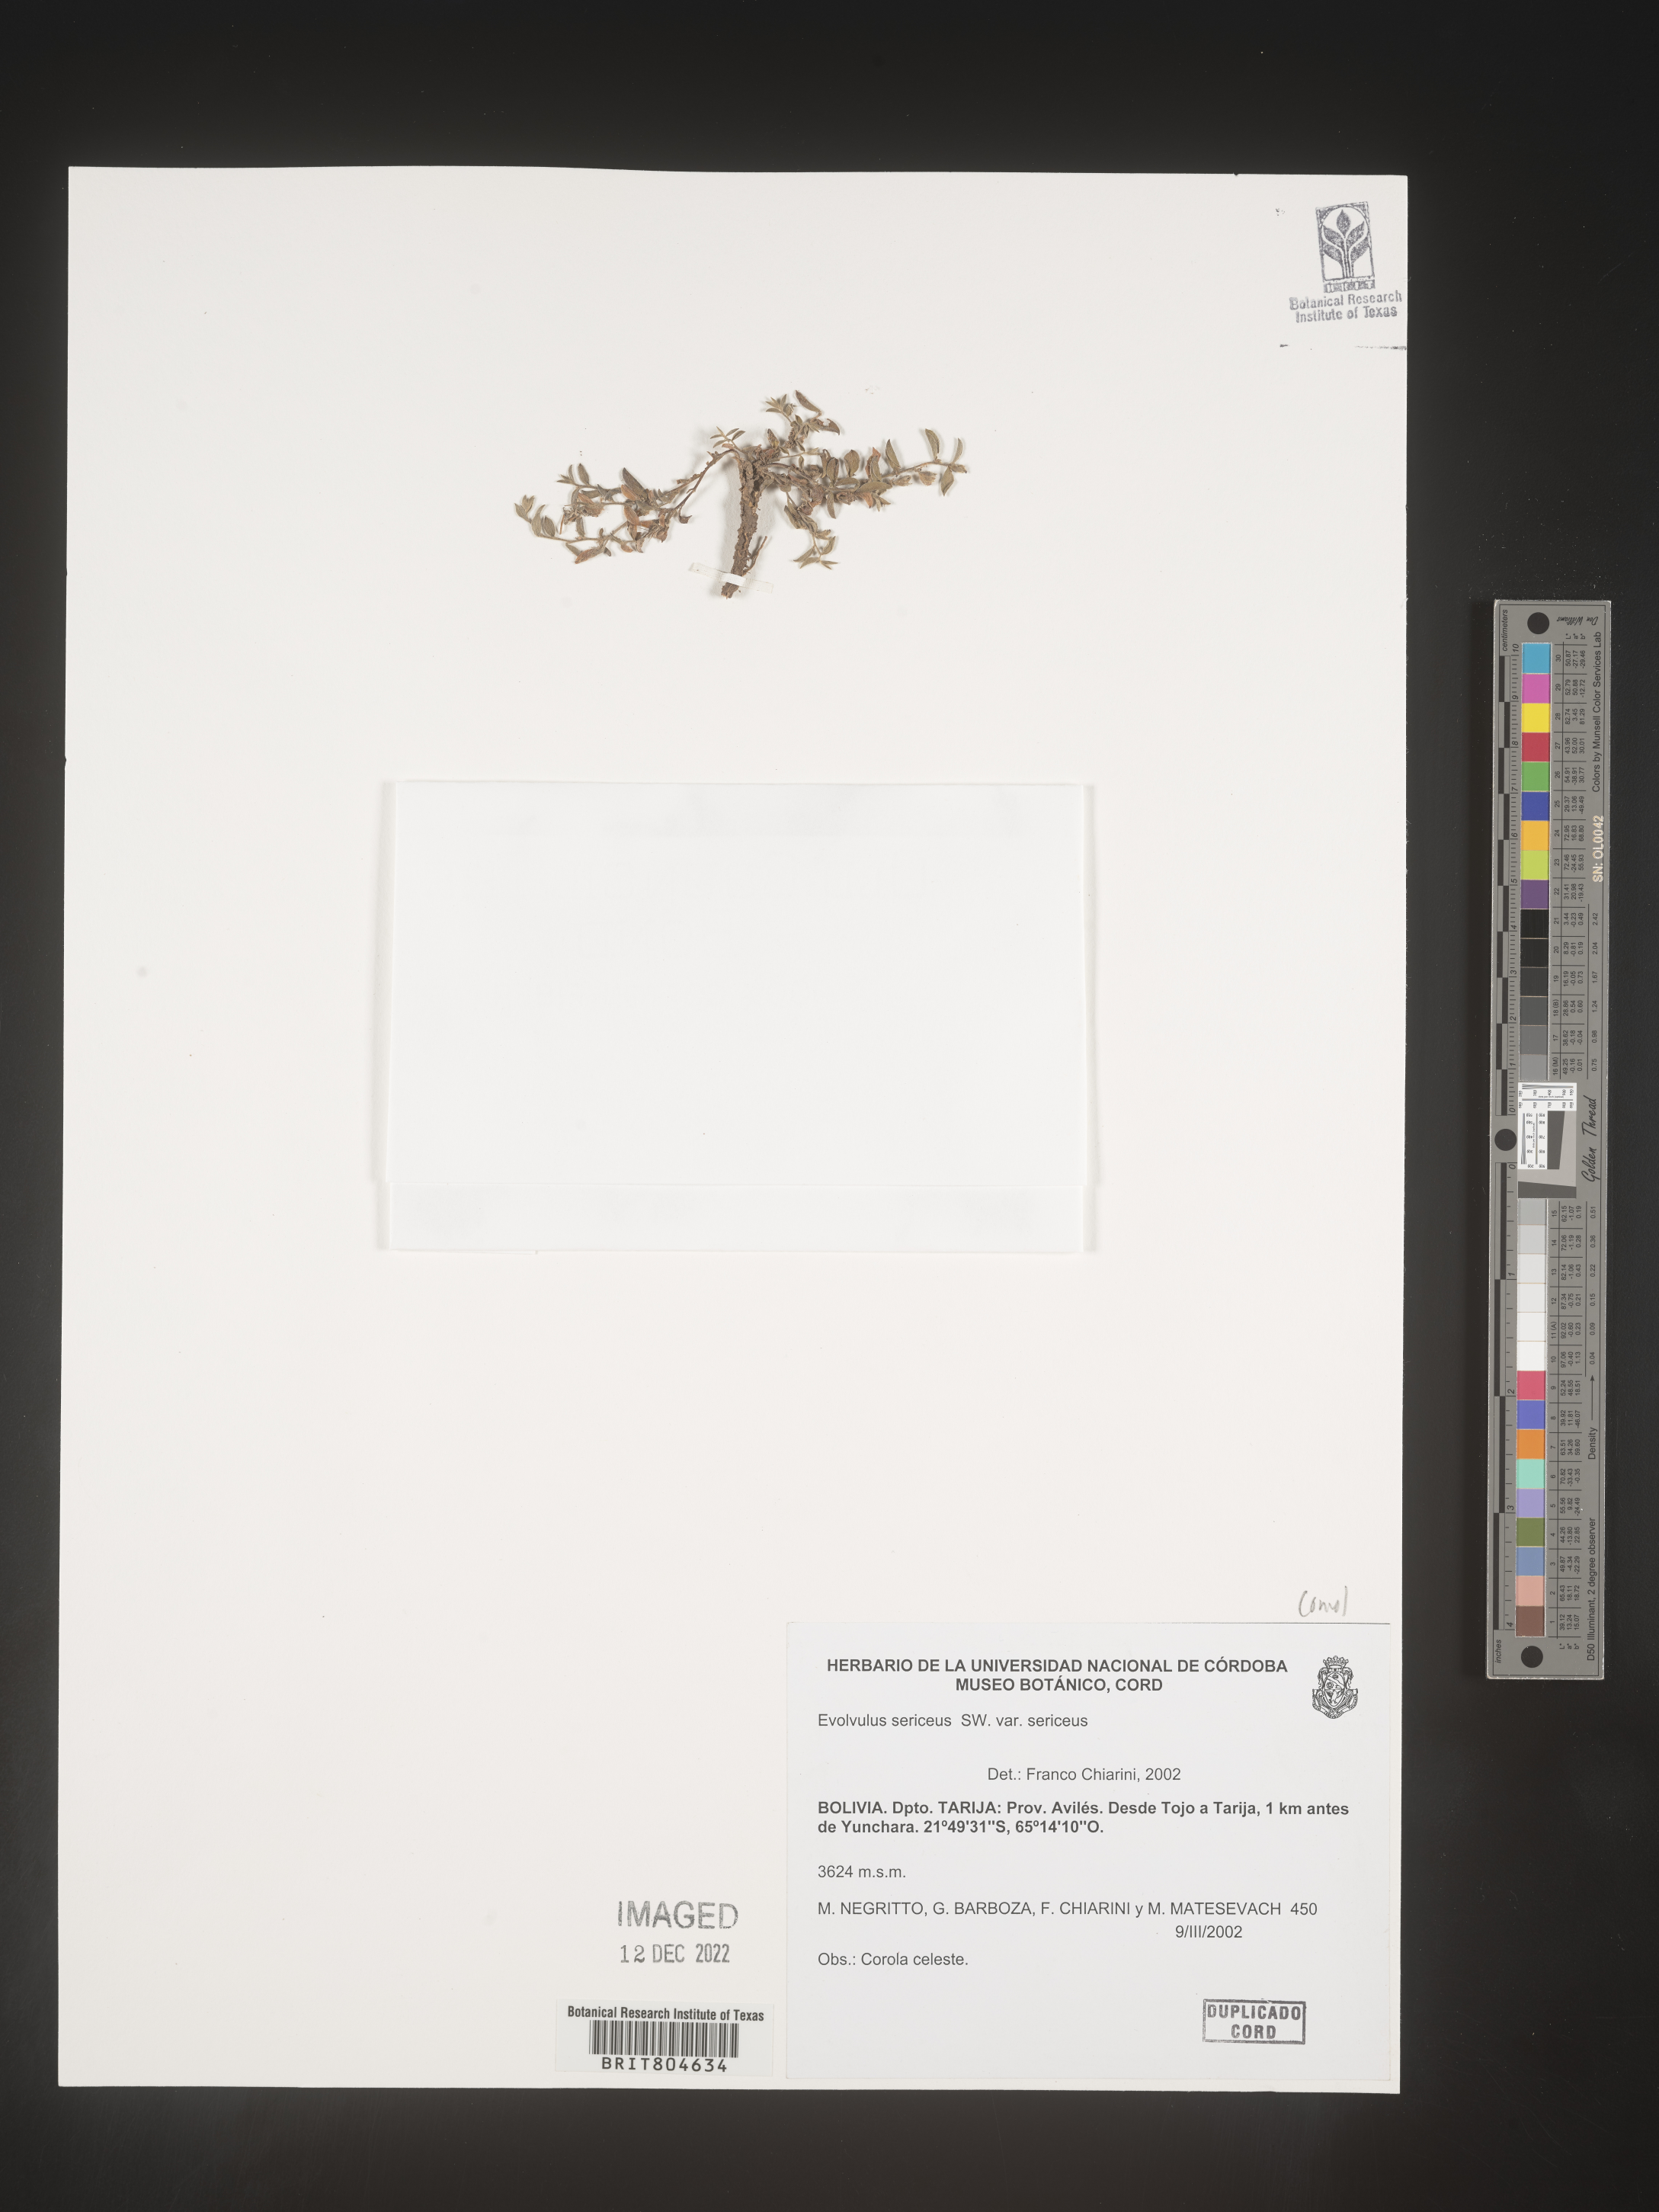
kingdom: Plantae
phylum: Tracheophyta
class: Magnoliopsida
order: Solanales
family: Convolvulaceae
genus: Evolvulus
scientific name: Evolvulus
